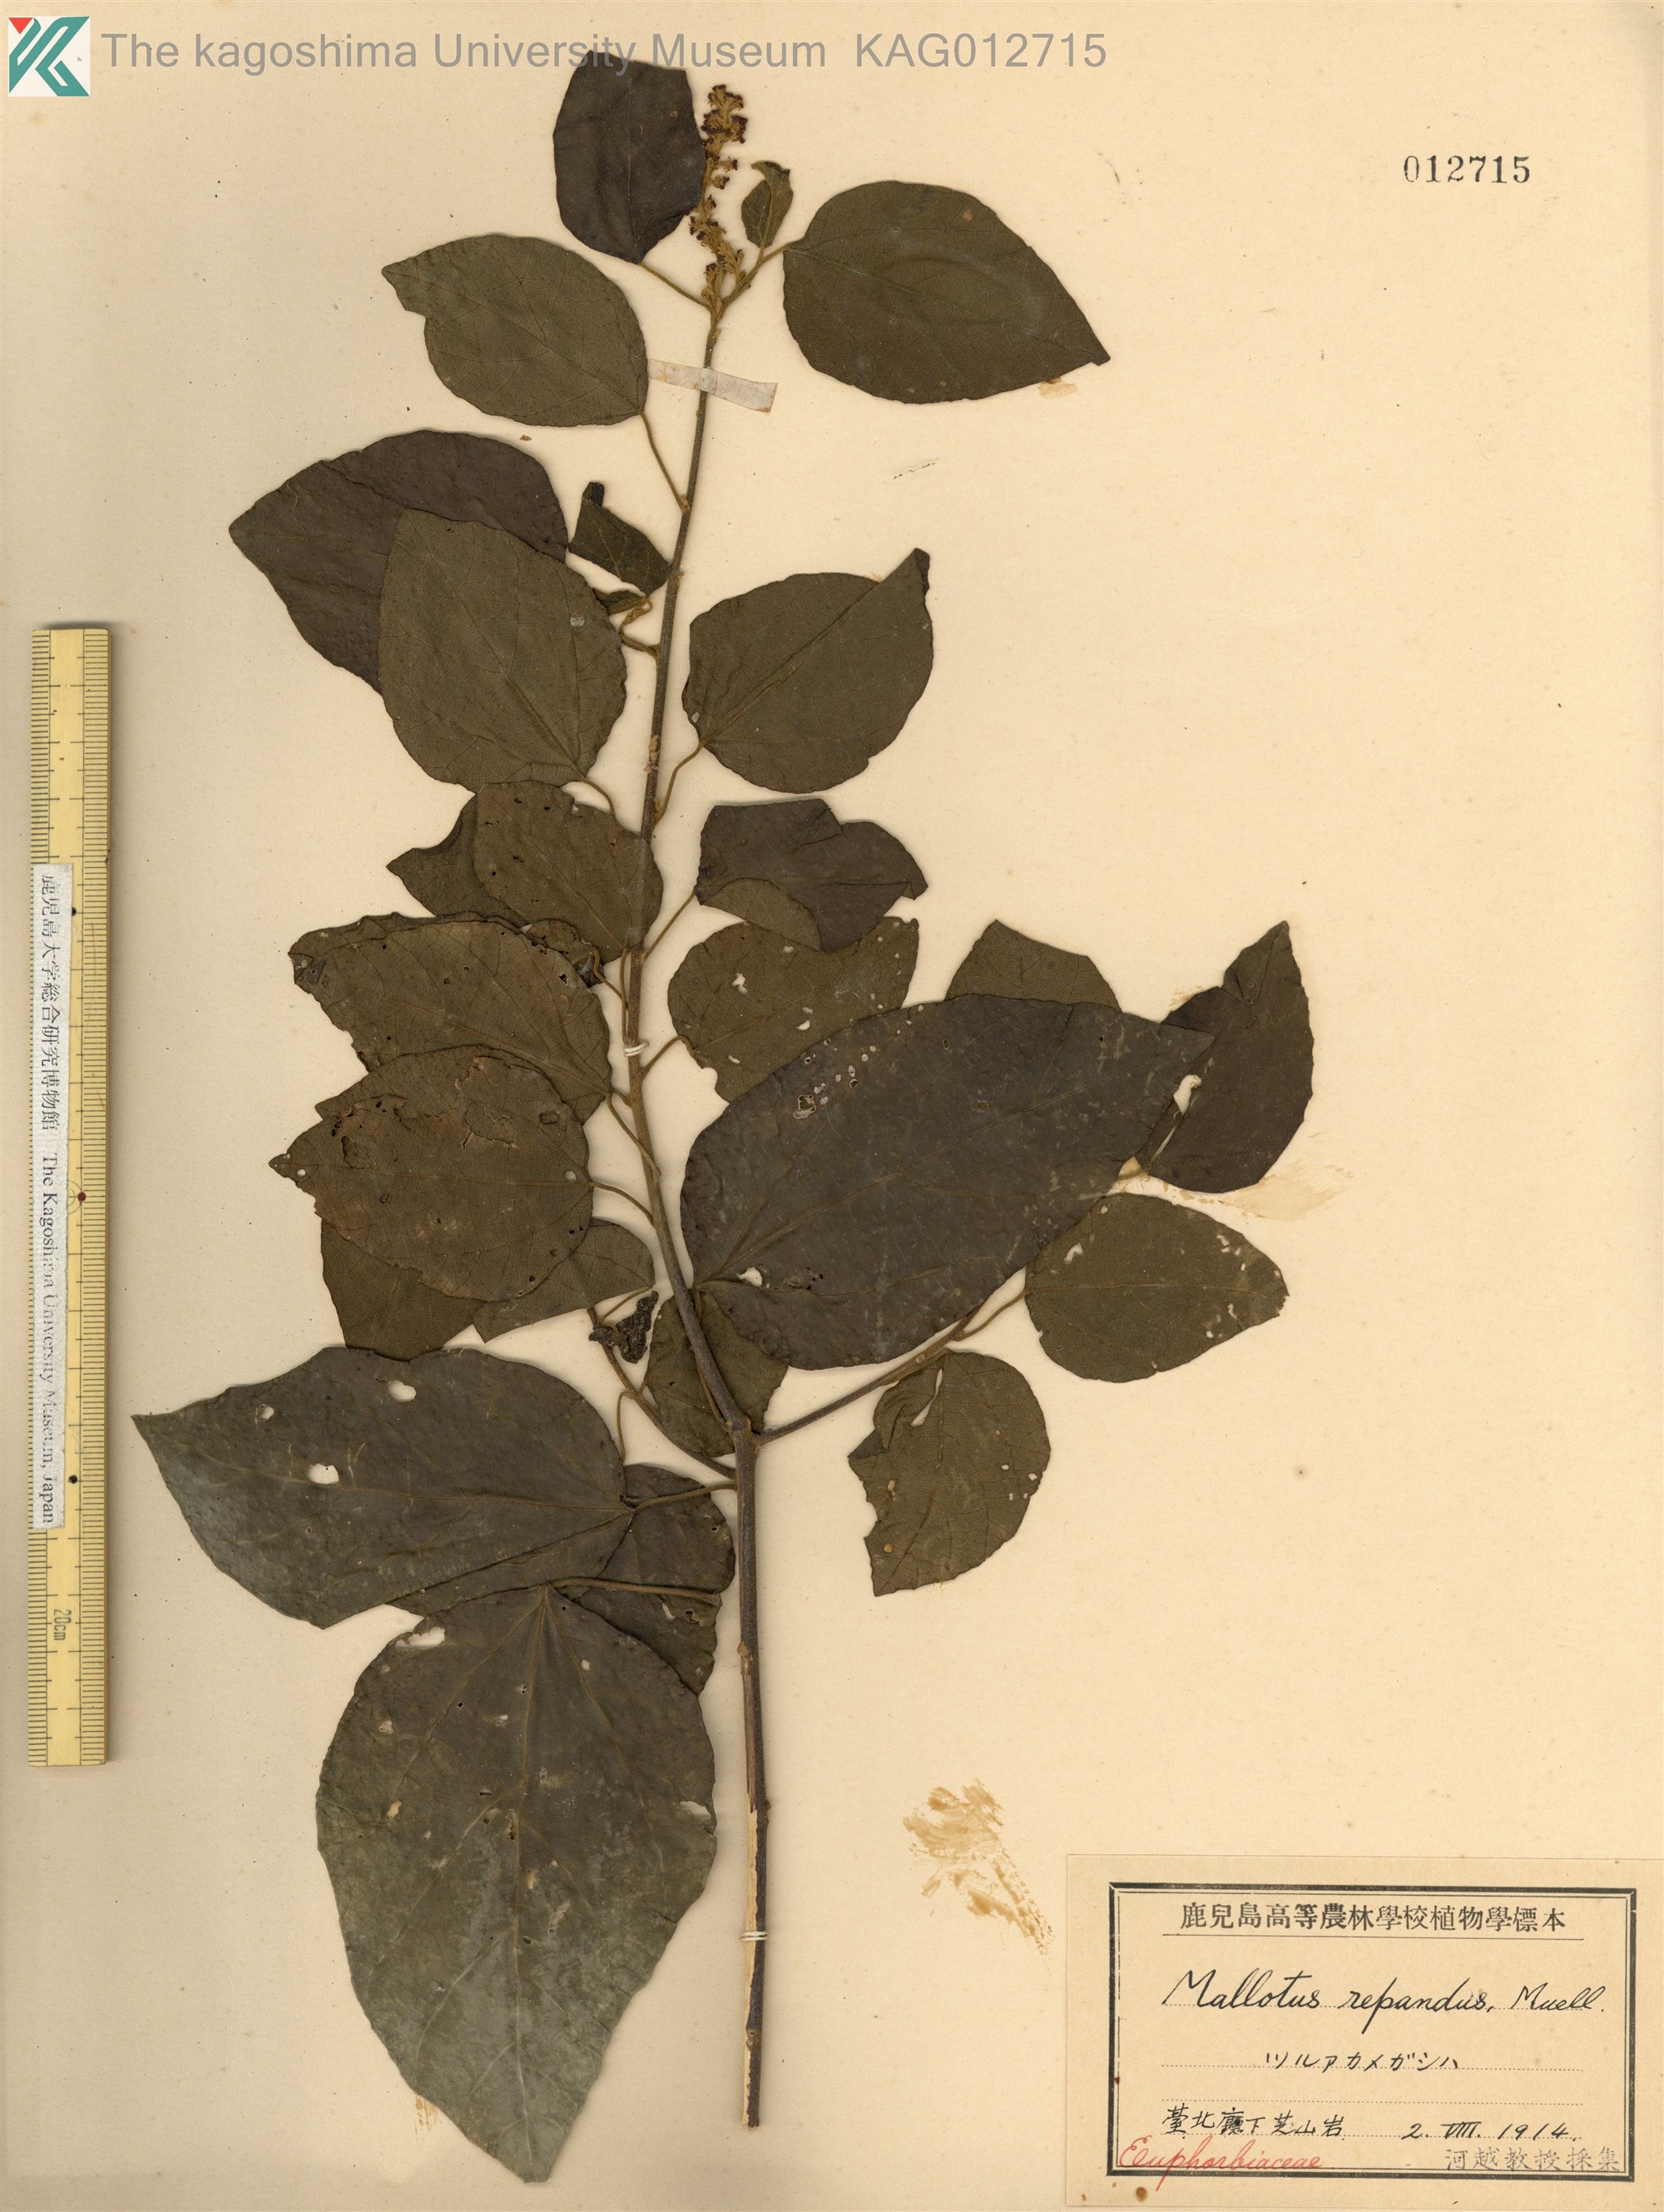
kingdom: Plantae
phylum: Tracheophyta
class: Magnoliopsida
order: Malpighiales
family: Euphorbiaceae
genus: Mallotus
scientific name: Mallotus repandus
